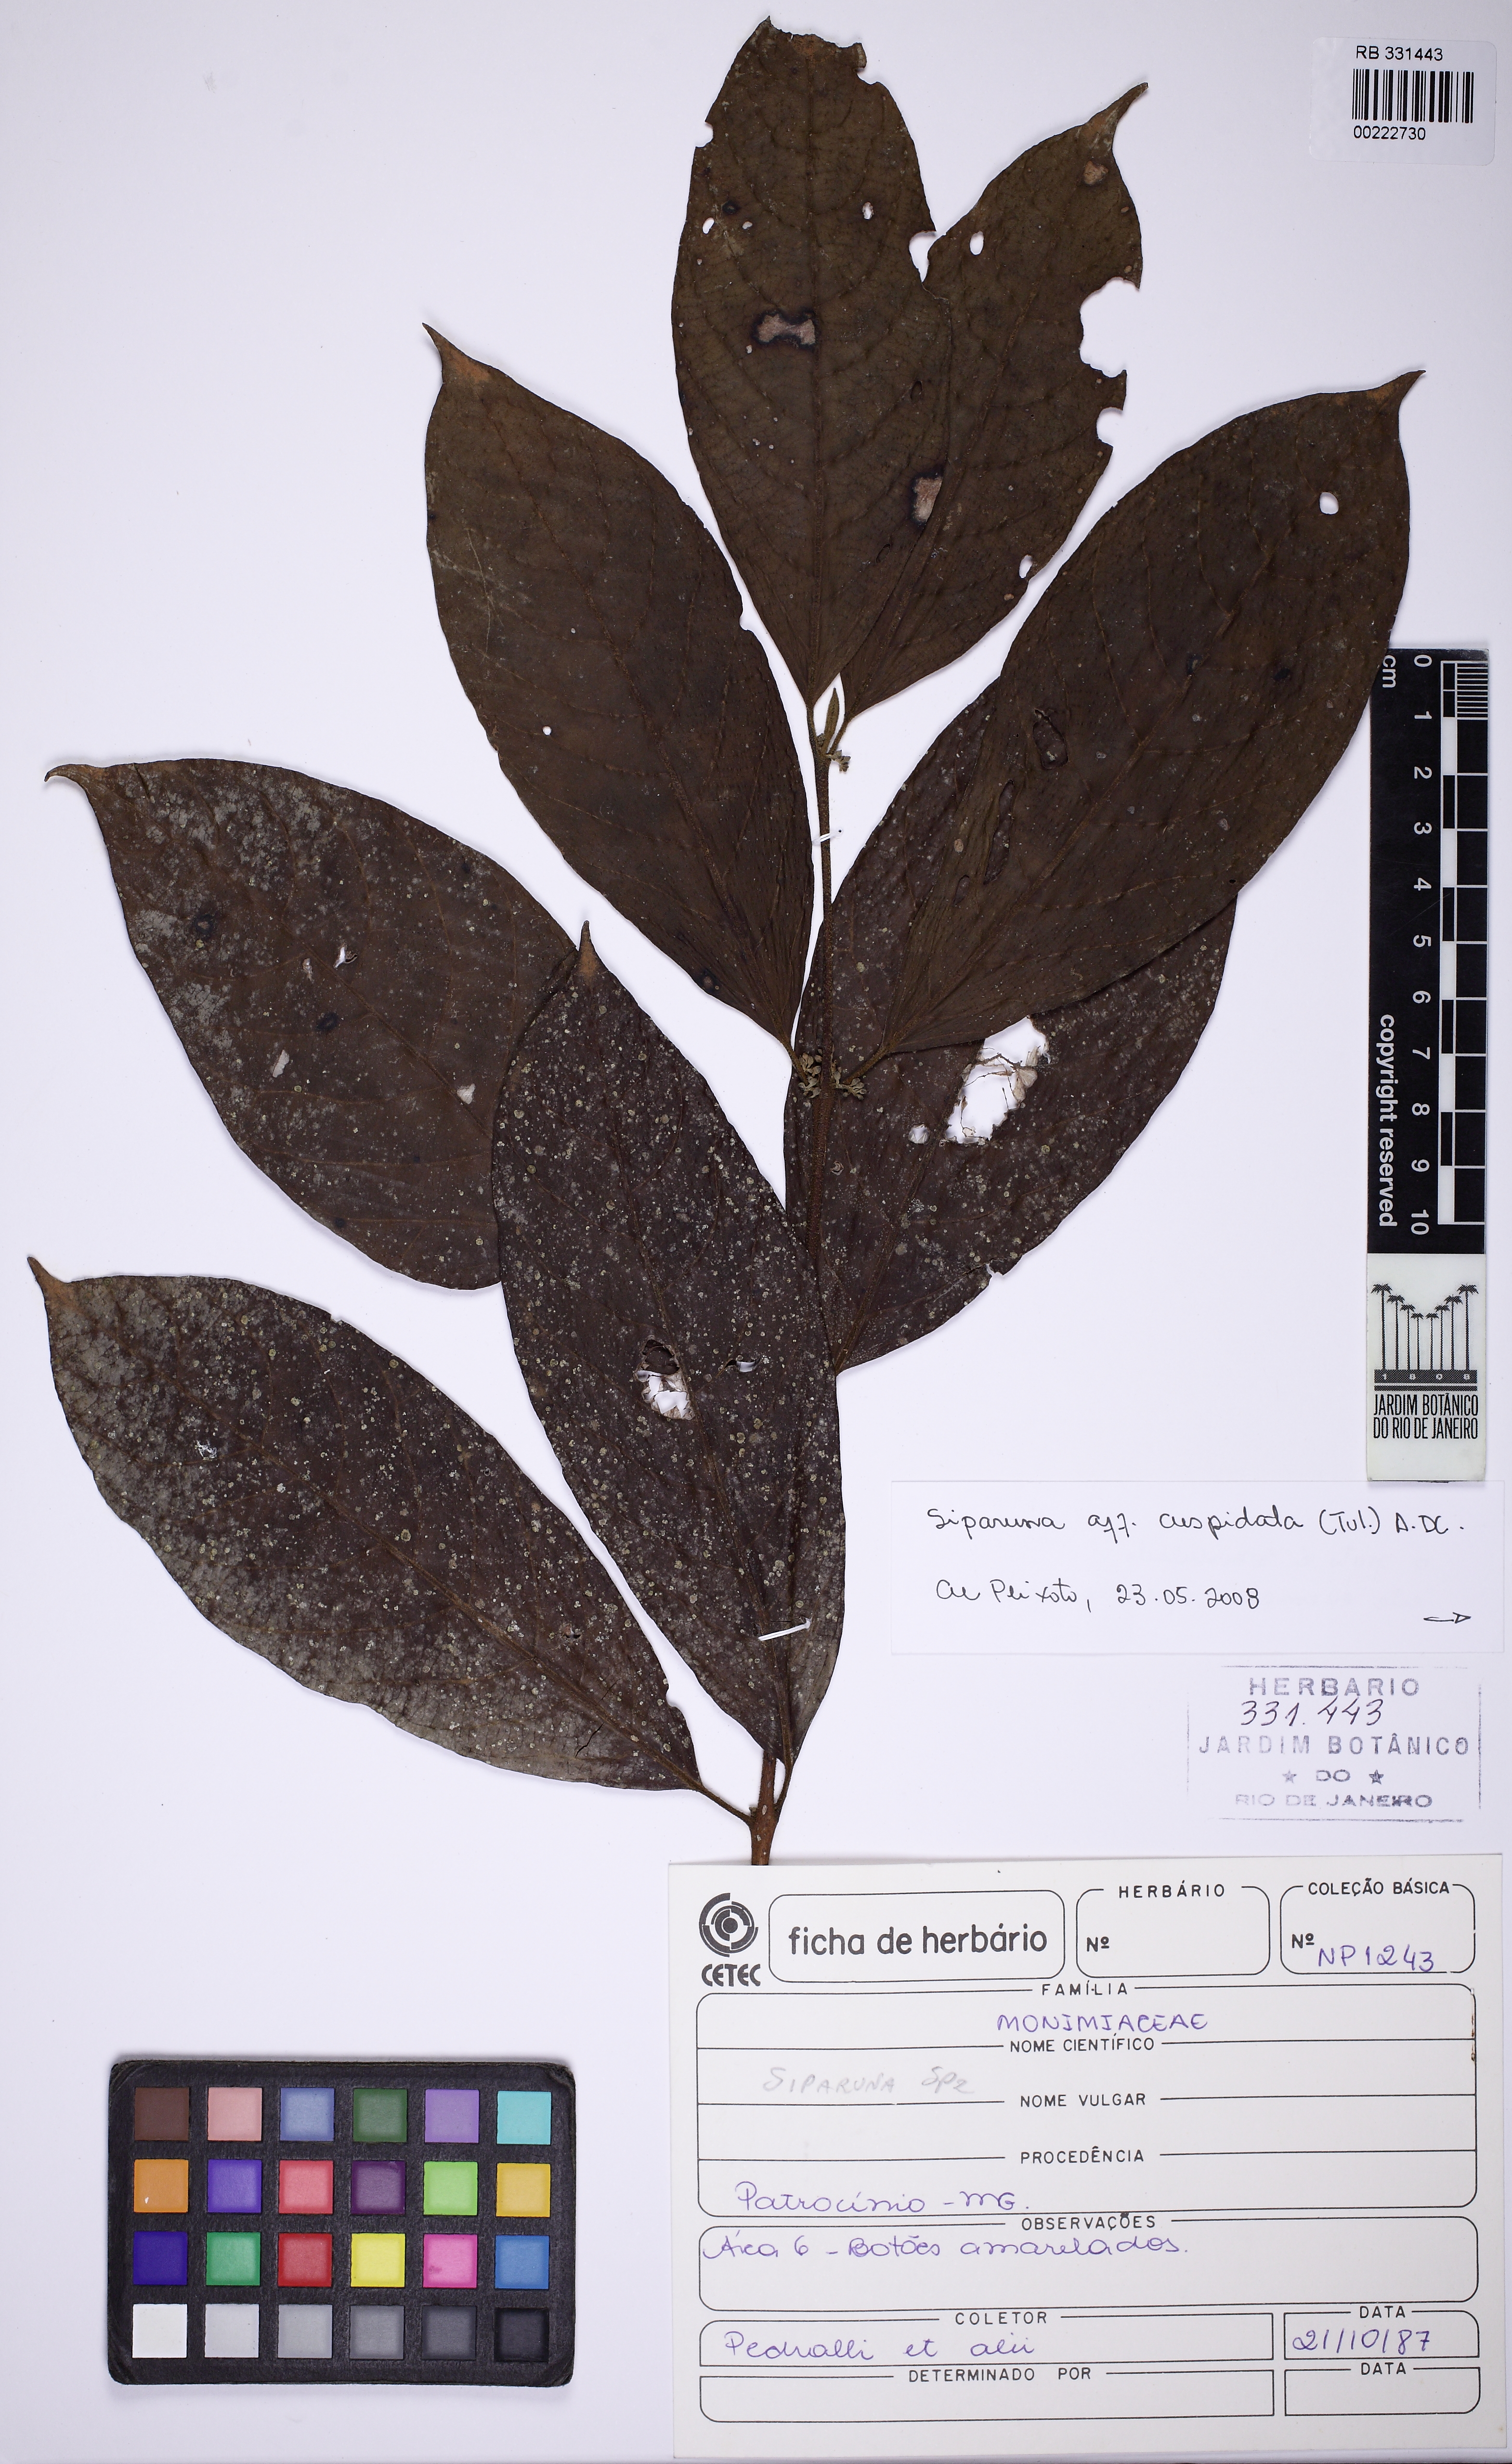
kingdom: Plantae
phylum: Tracheophyta
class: Magnoliopsida
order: Laurales
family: Siparunaceae
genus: Siparuna
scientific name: Siparuna cuspidata
